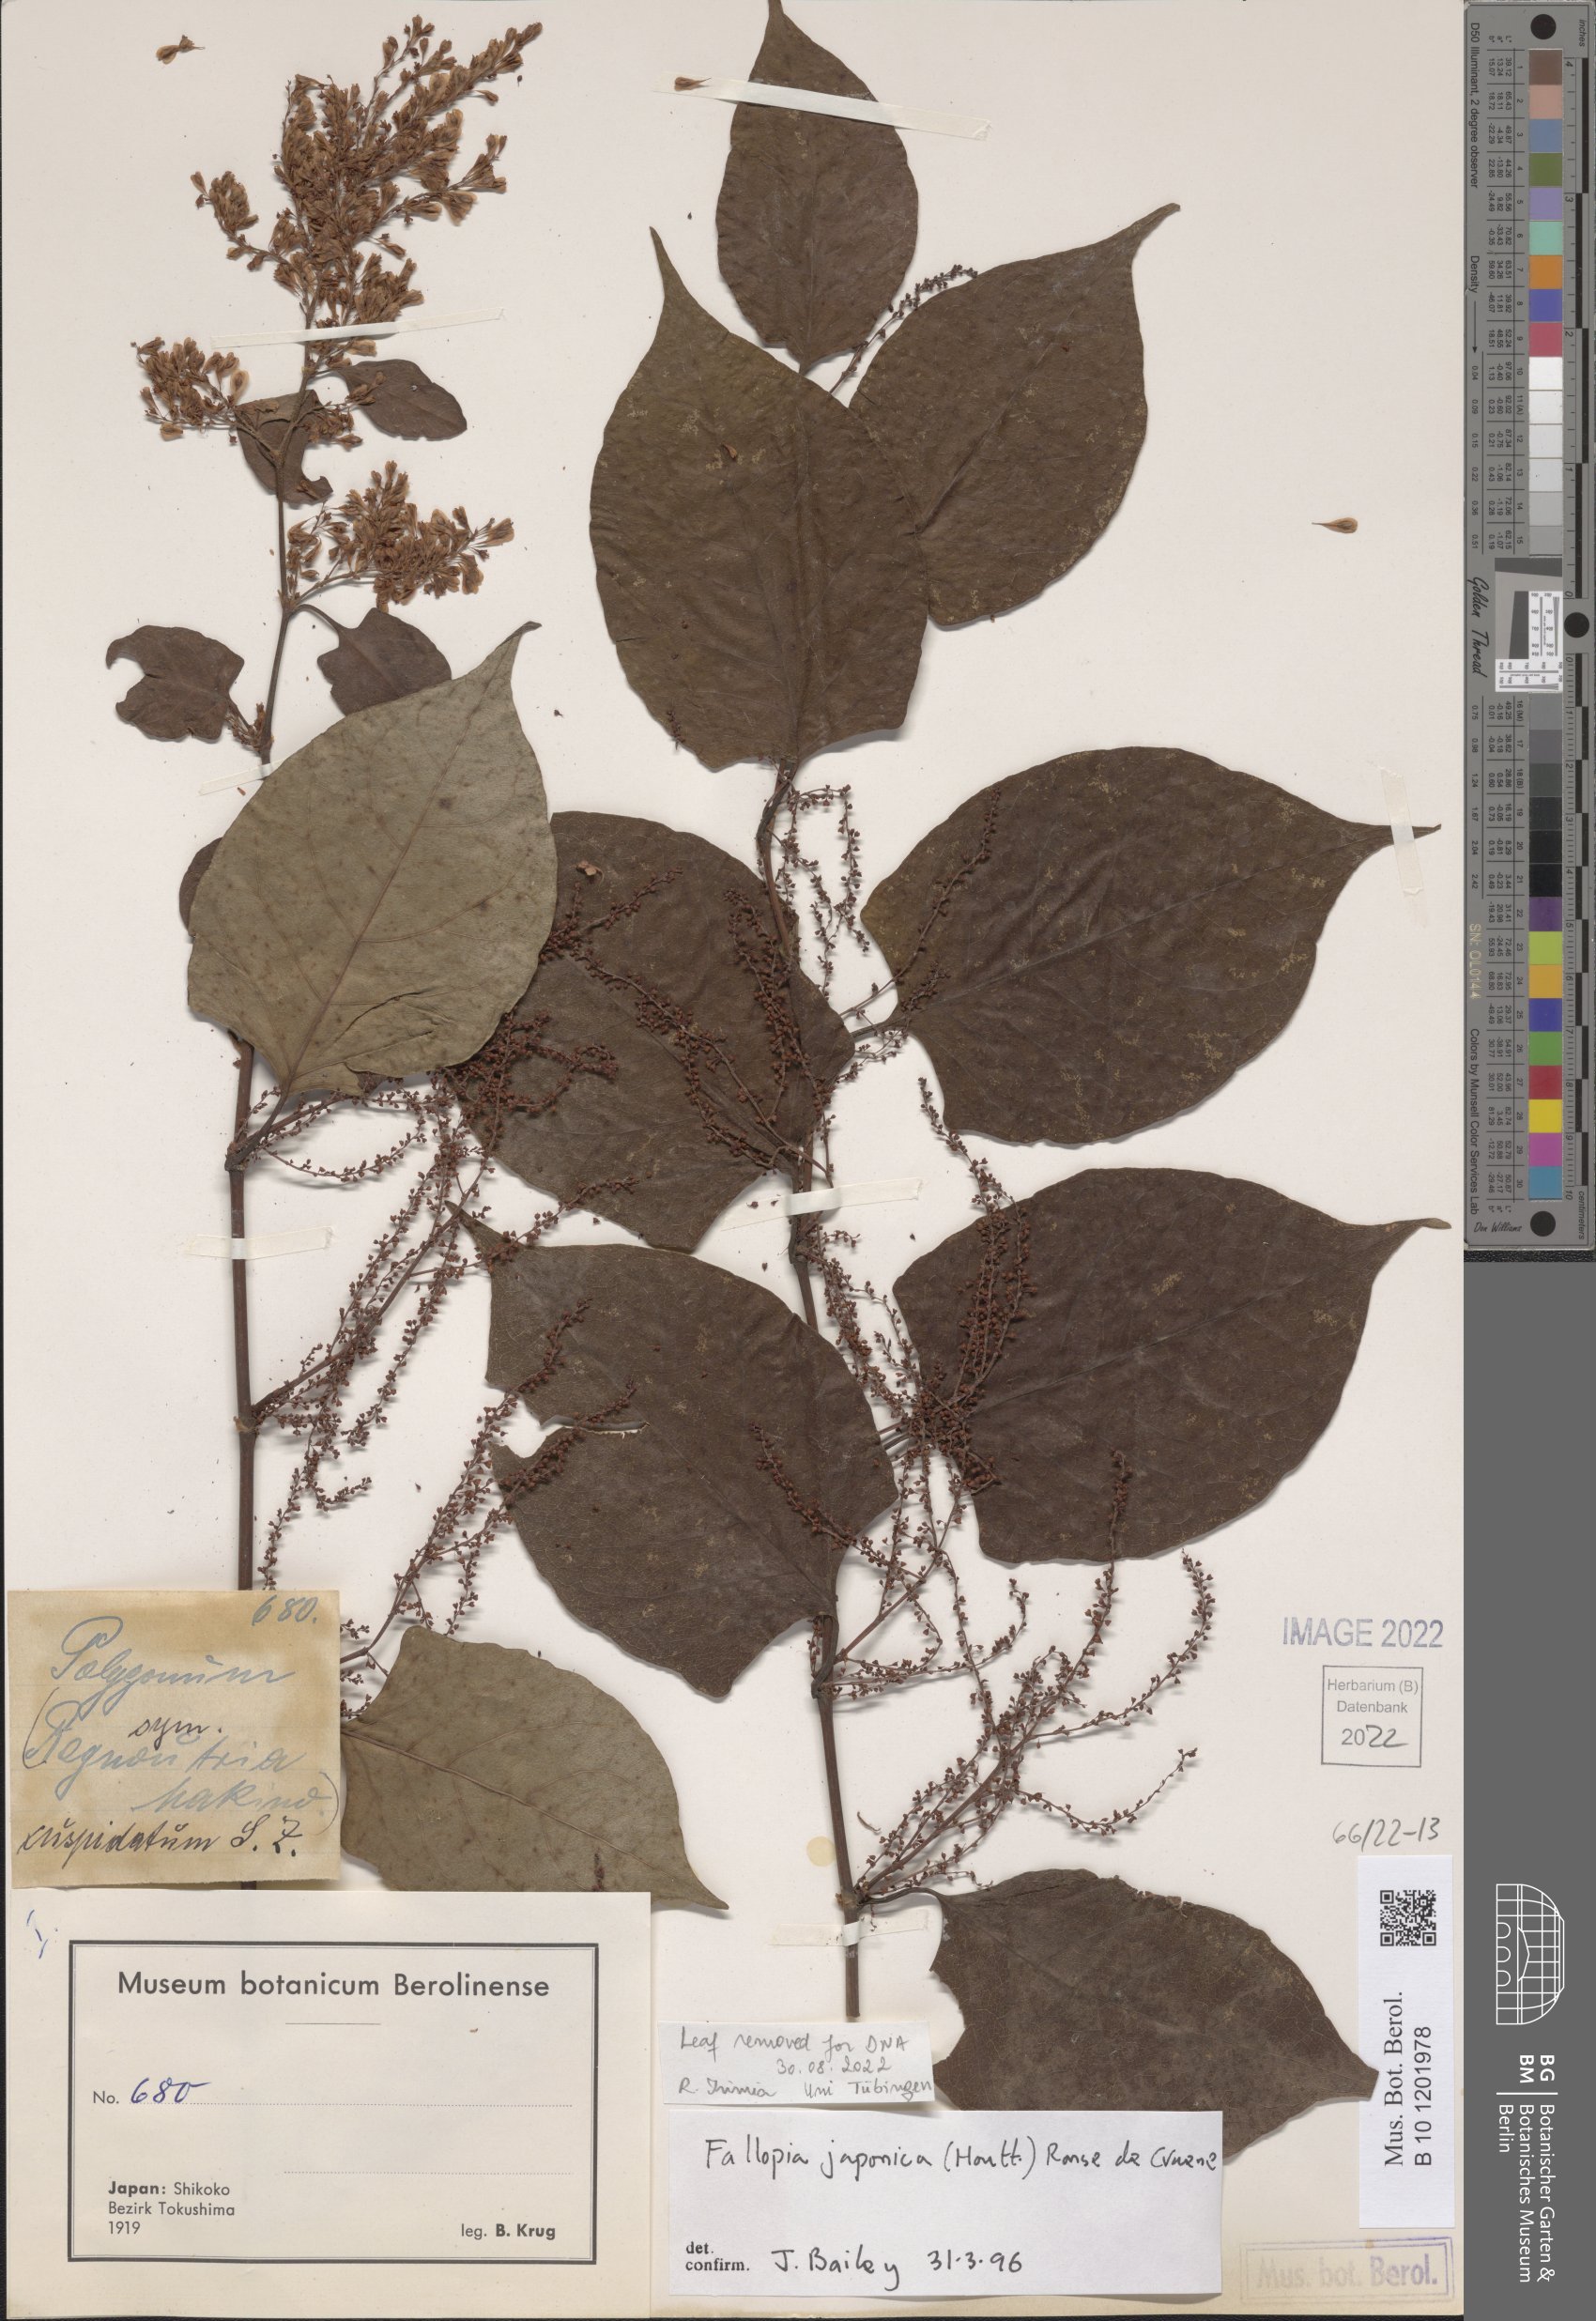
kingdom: Plantae
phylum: Tracheophyta
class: Magnoliopsida
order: Caryophyllales
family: Polygonaceae
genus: Reynoutria
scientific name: Reynoutria japonica
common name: Japanese knotweed
